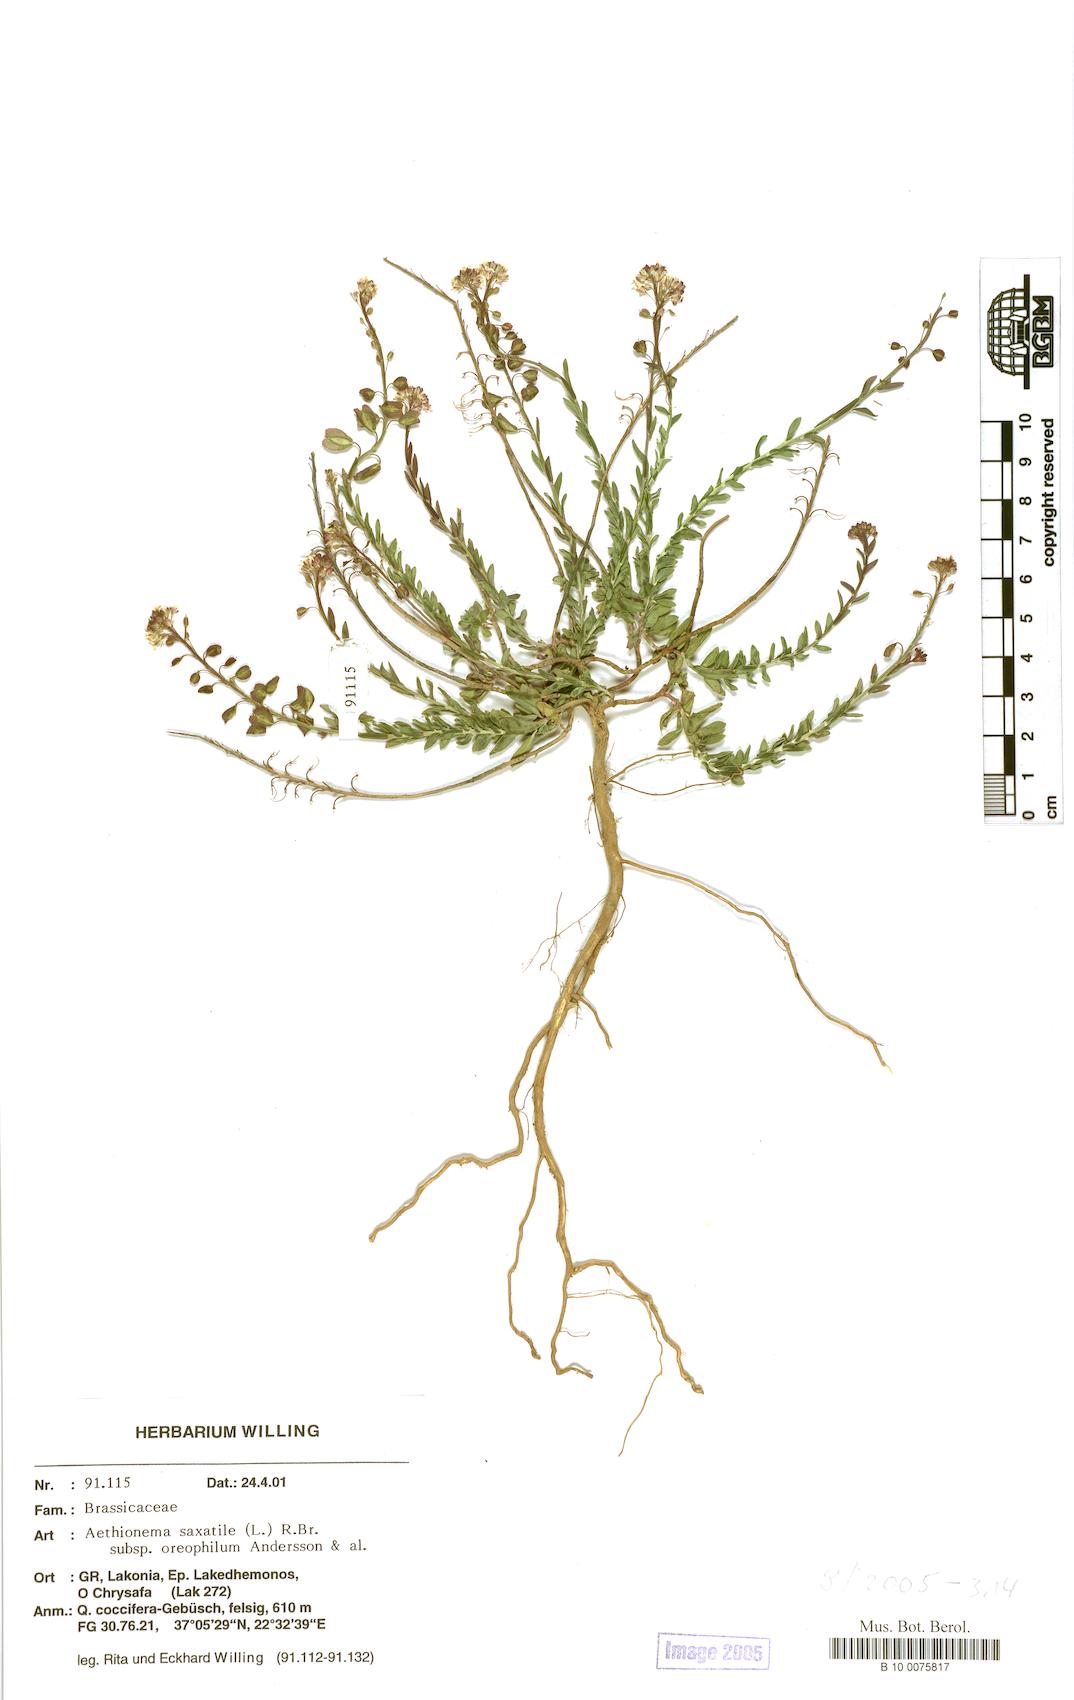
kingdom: Plantae
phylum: Tracheophyta
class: Magnoliopsida
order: Brassicales
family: Brassicaceae
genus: Aethionema
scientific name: Aethionema saxatile
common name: Burnt candytuft
